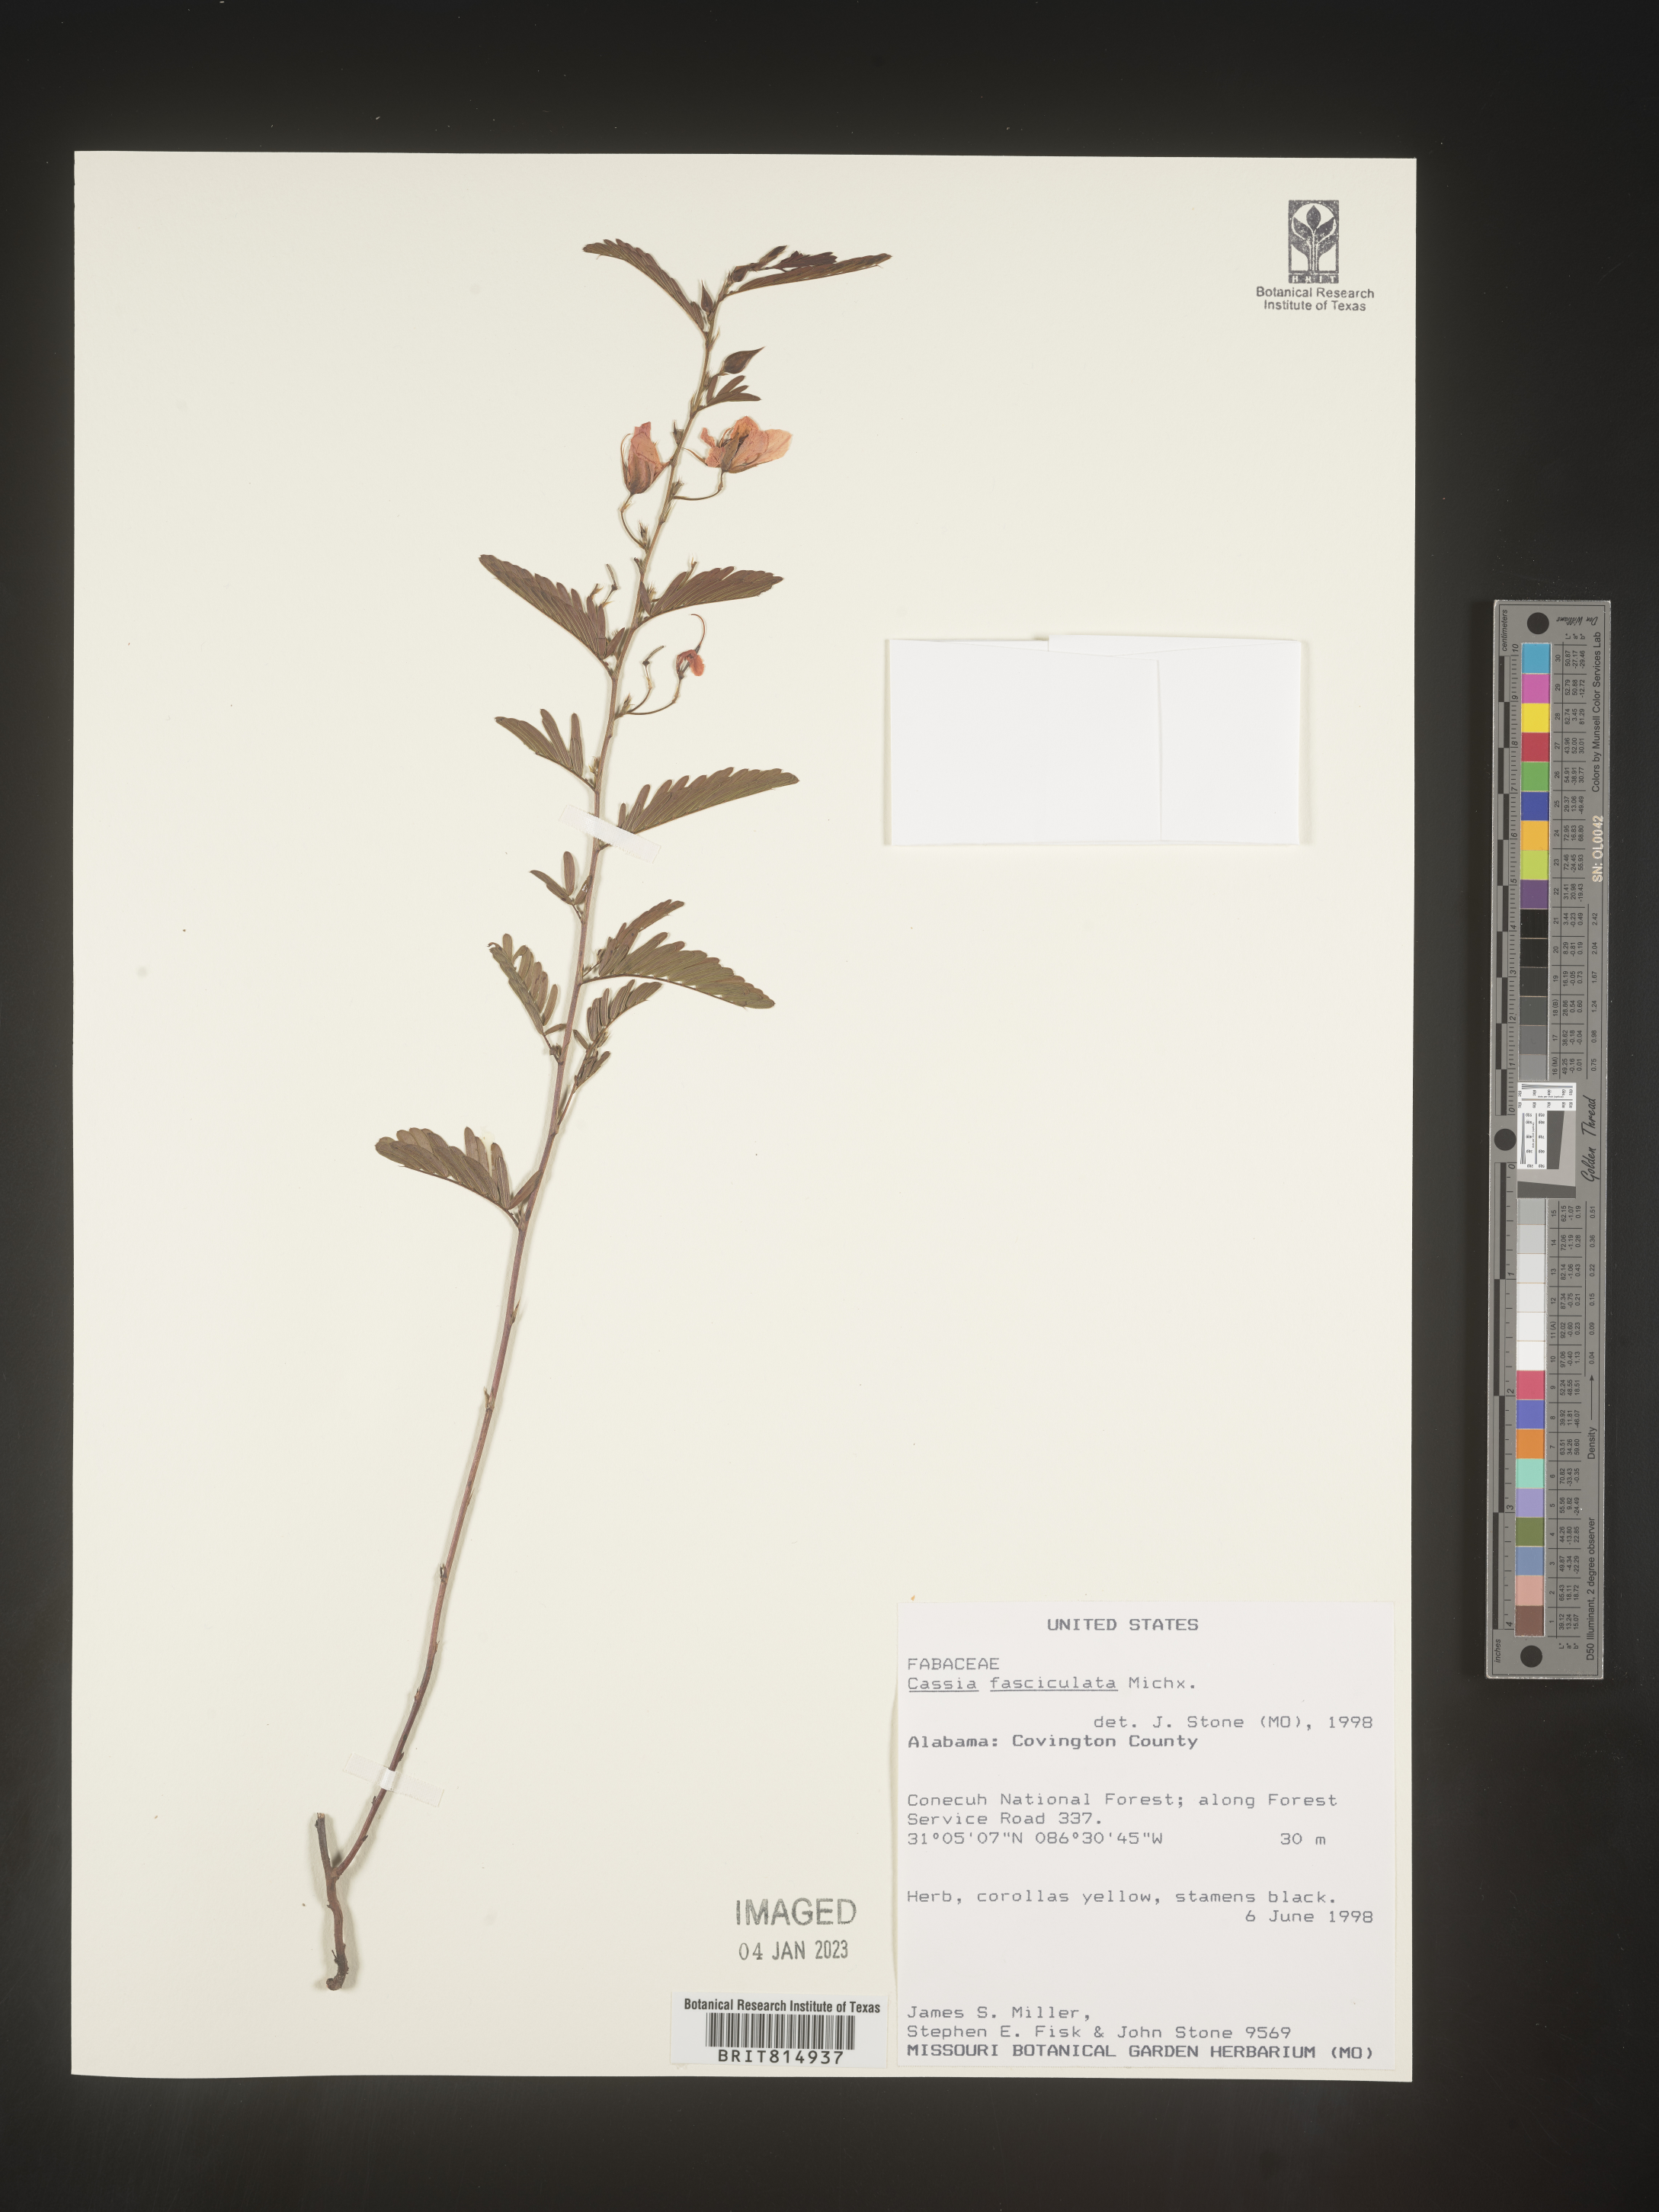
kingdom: Plantae
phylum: Tracheophyta
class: Magnoliopsida
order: Fabales
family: Fabaceae
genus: Chamaecrista
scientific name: Chamaecrista fasciculata
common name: Golden cassia
